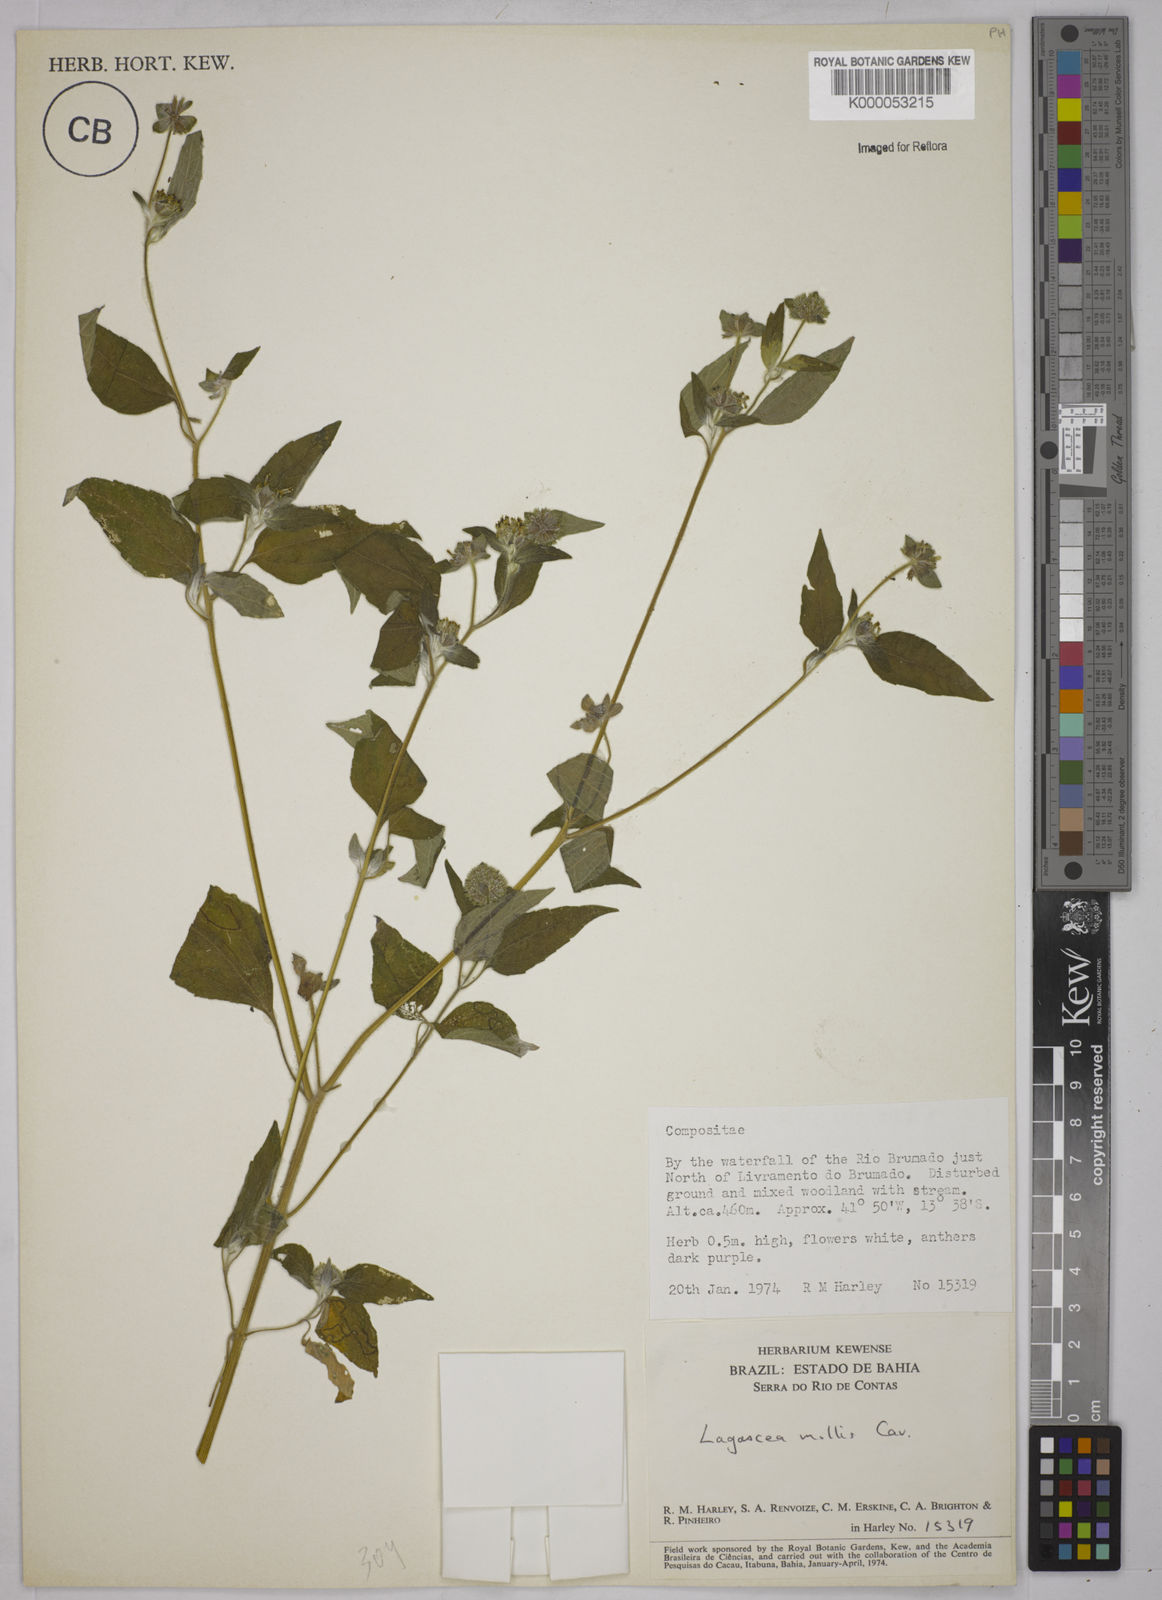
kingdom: Plantae
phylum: Tracheophyta
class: Magnoliopsida
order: Asterales
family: Asteraceae
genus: Lagascea
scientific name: Lagascea mollis
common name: Silkleaf
